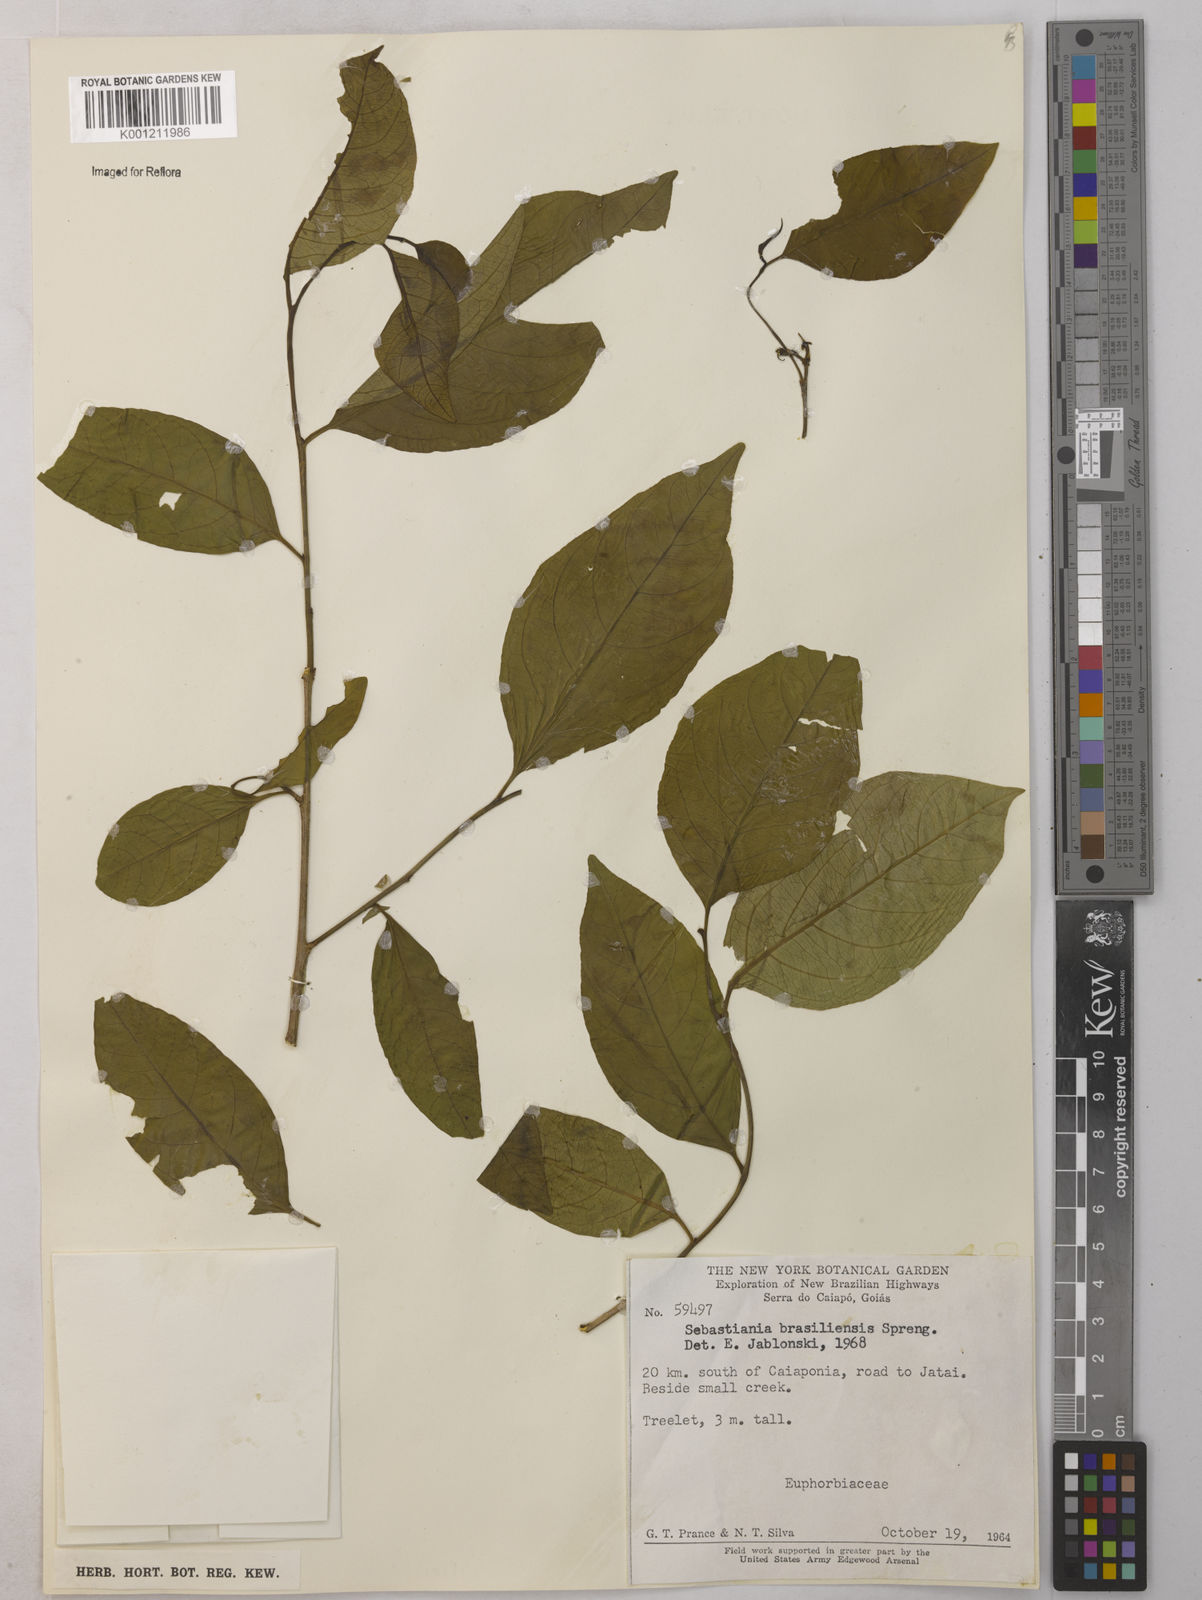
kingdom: Plantae
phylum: Tracheophyta
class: Magnoliopsida
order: Malpighiales
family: Euphorbiaceae
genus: Sebastiania
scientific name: Sebastiania brasiliensis
